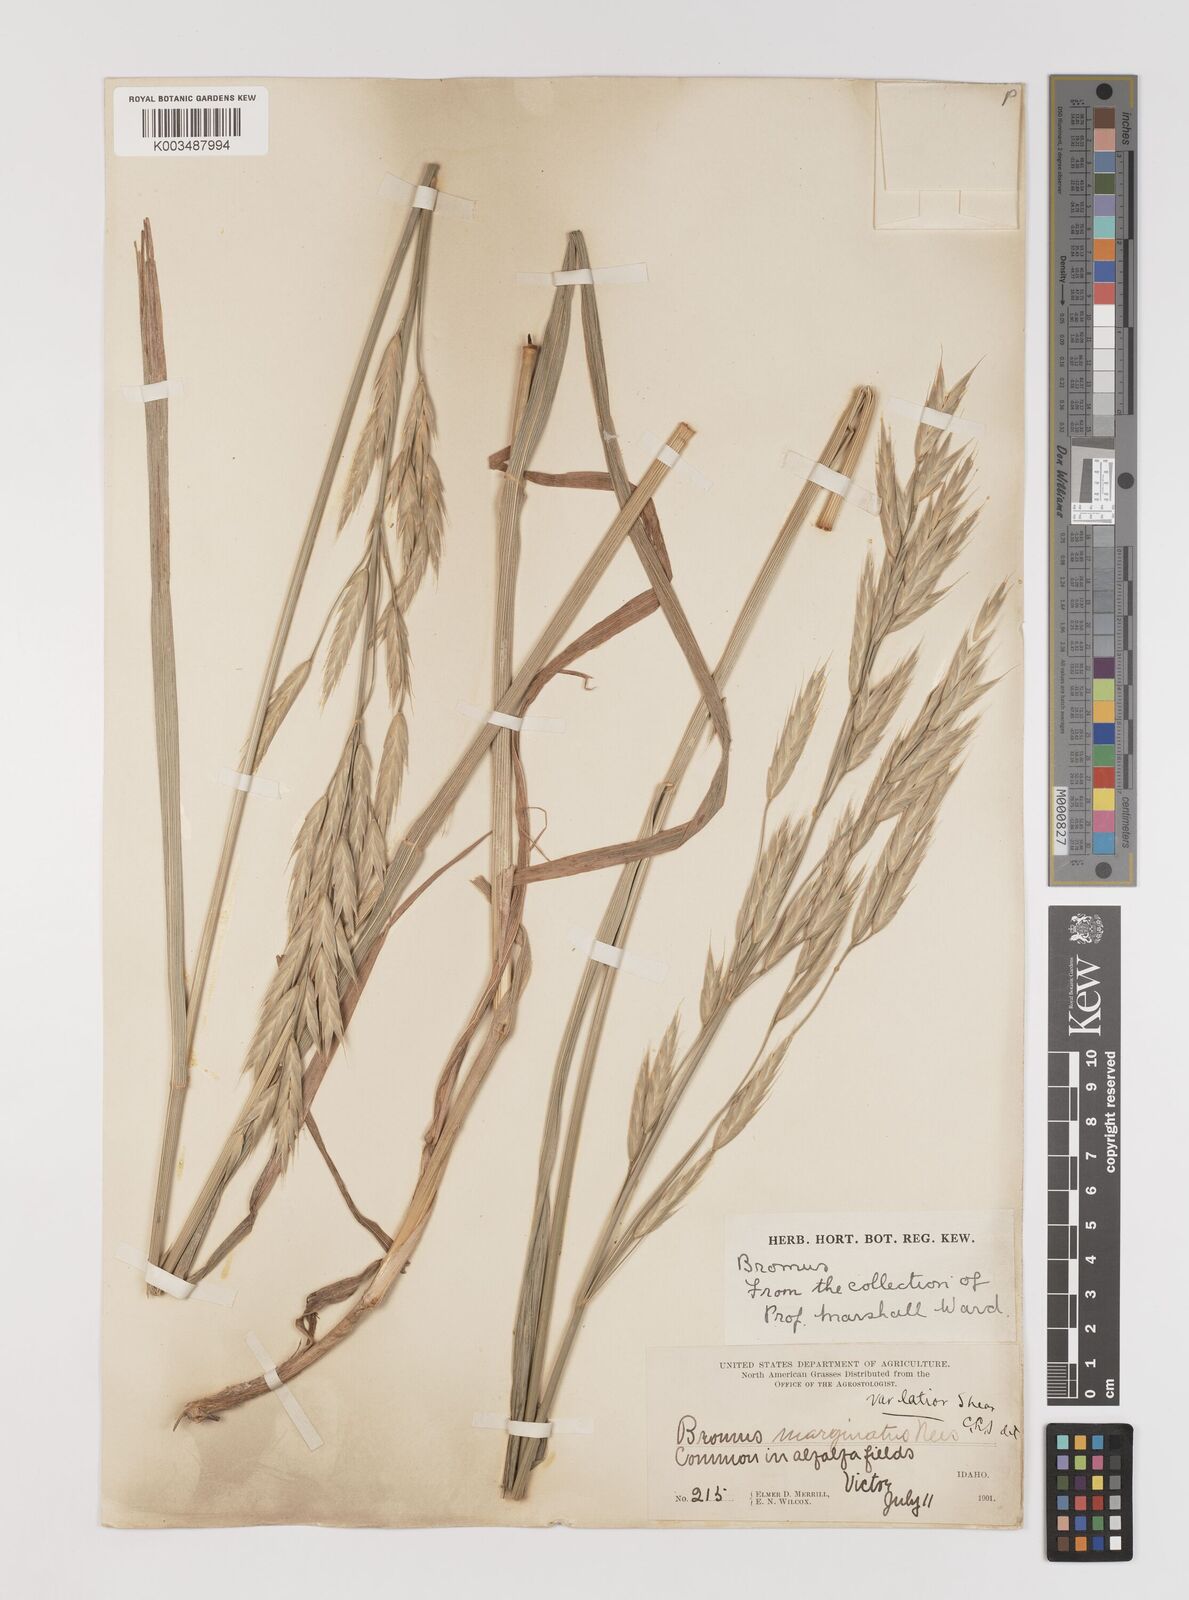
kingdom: Plantae
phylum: Tracheophyta
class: Liliopsida
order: Poales
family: Poaceae
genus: Bromus
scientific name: Bromus marginatus
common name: Western brome
